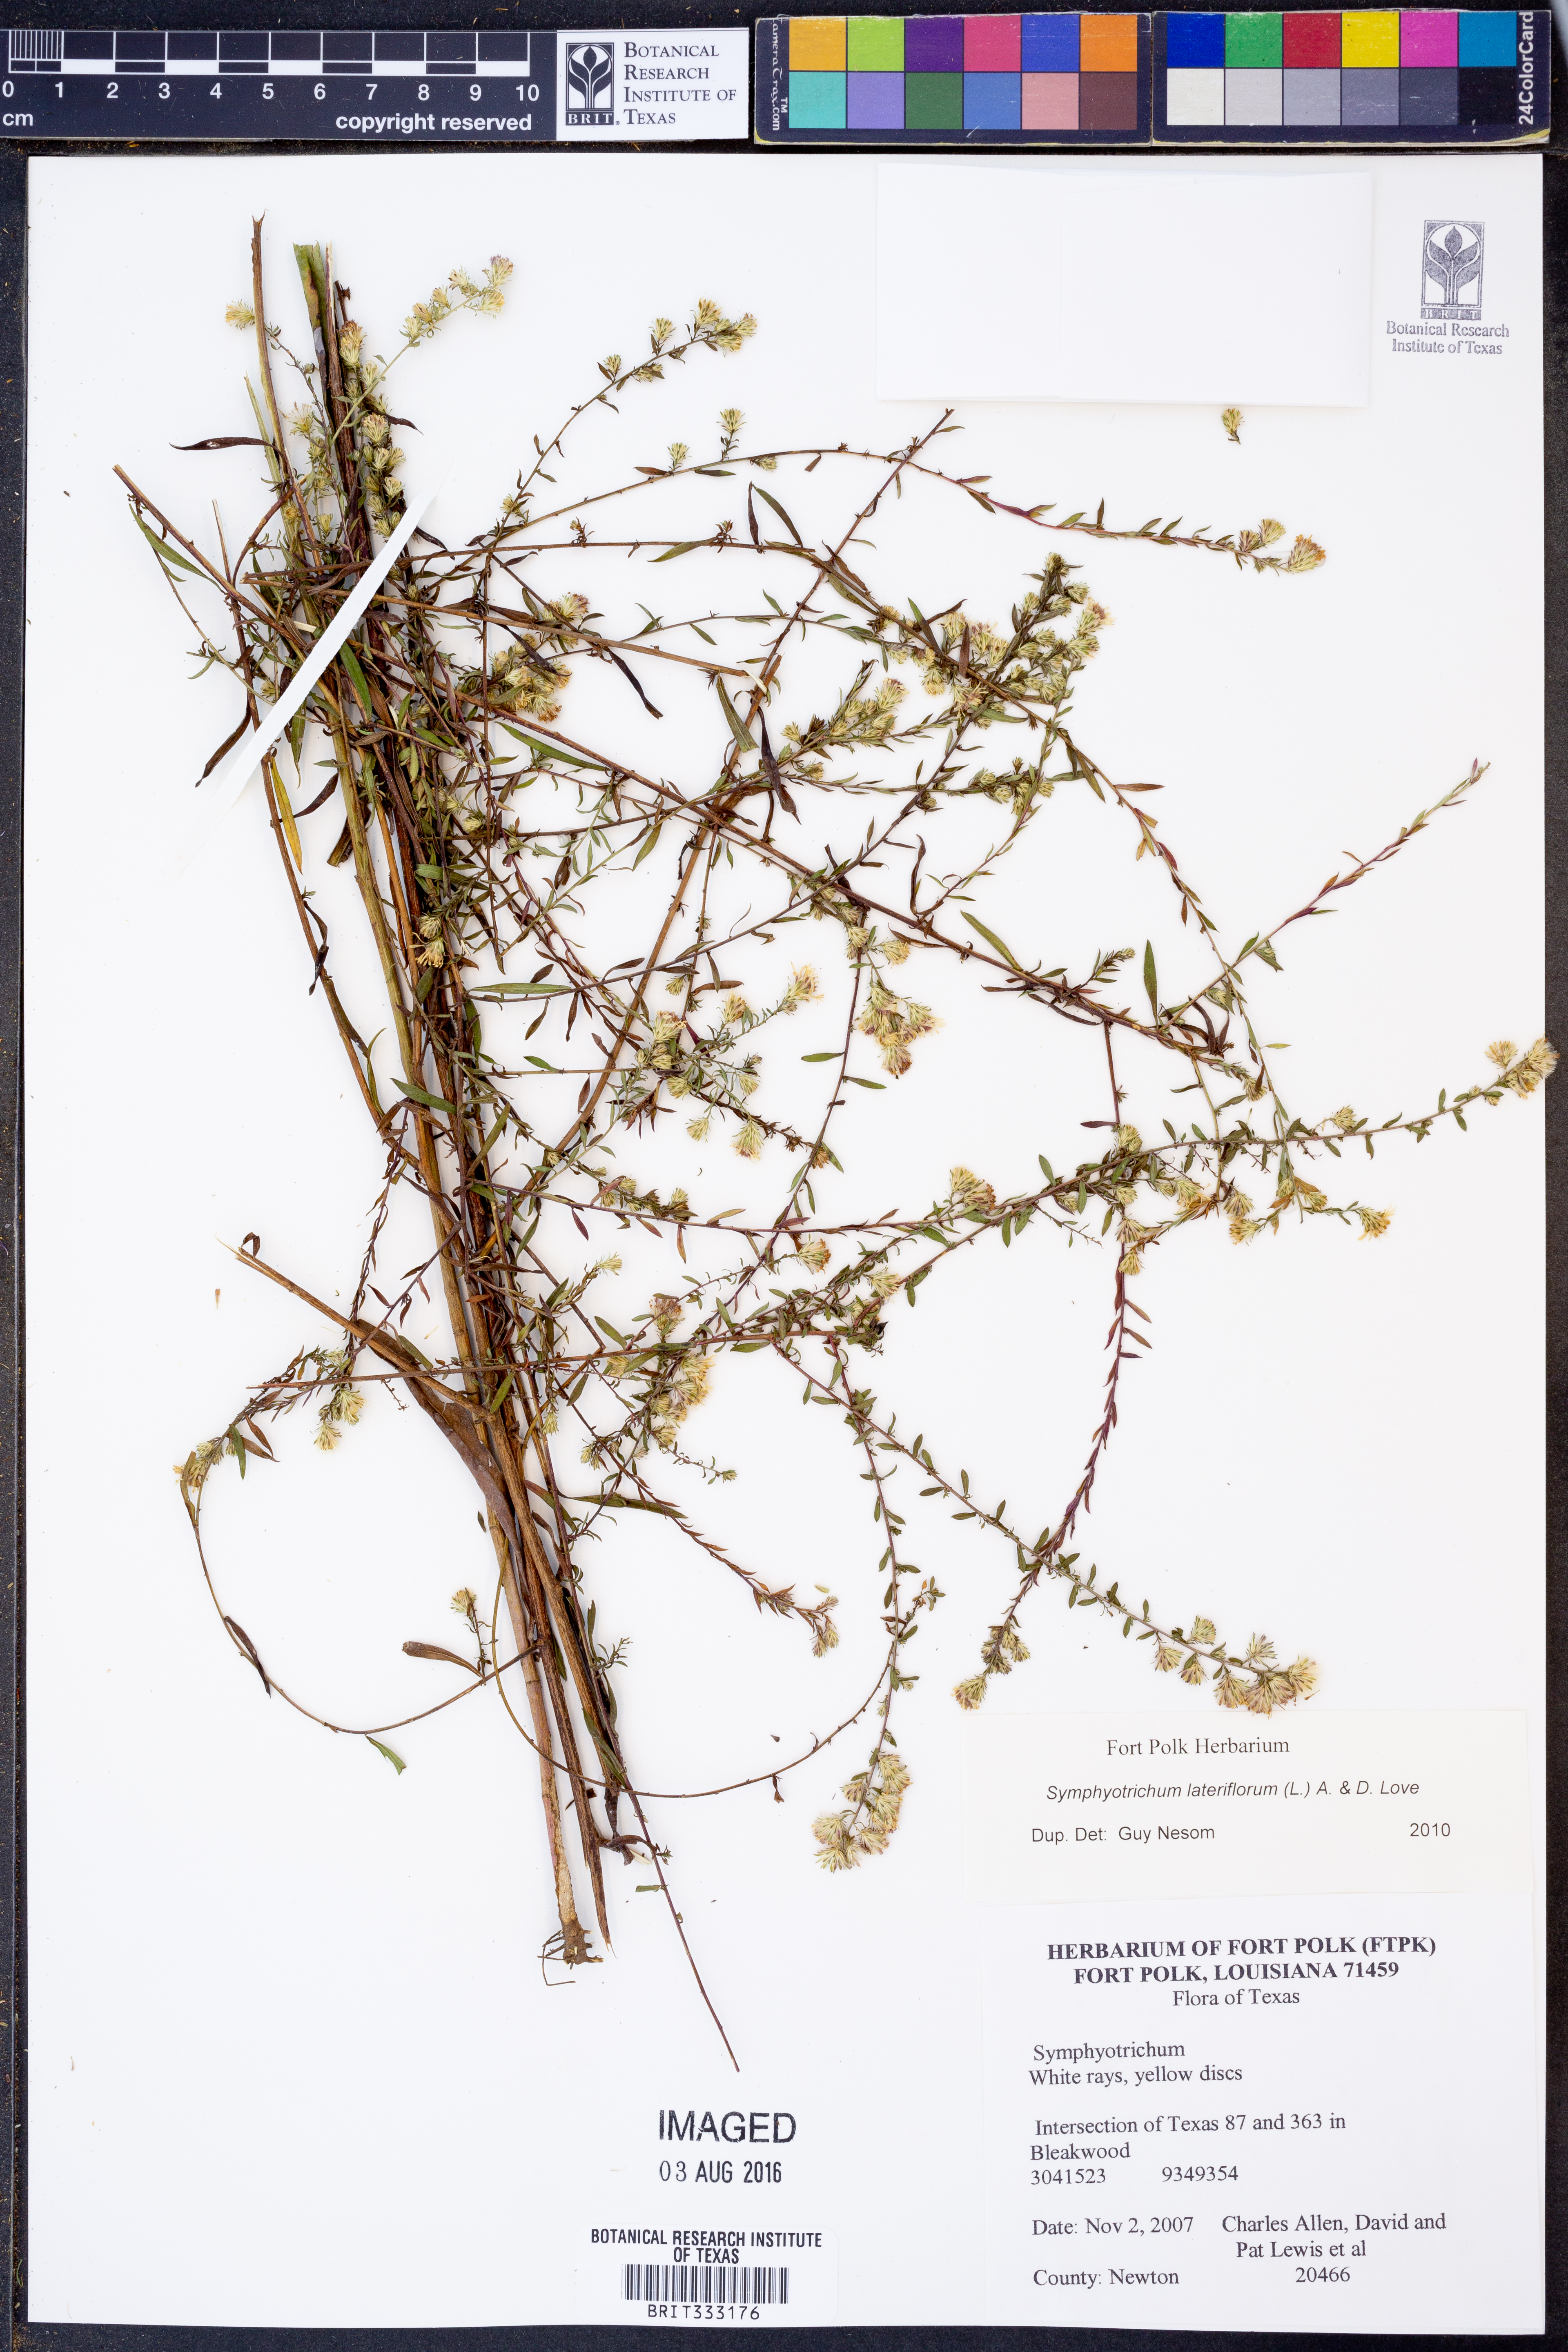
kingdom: Plantae
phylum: Tracheophyta
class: Magnoliopsida
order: Asterales
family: Asteraceae
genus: Symphyotrichum
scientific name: Symphyotrichum lateriflorum
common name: Calico aster
